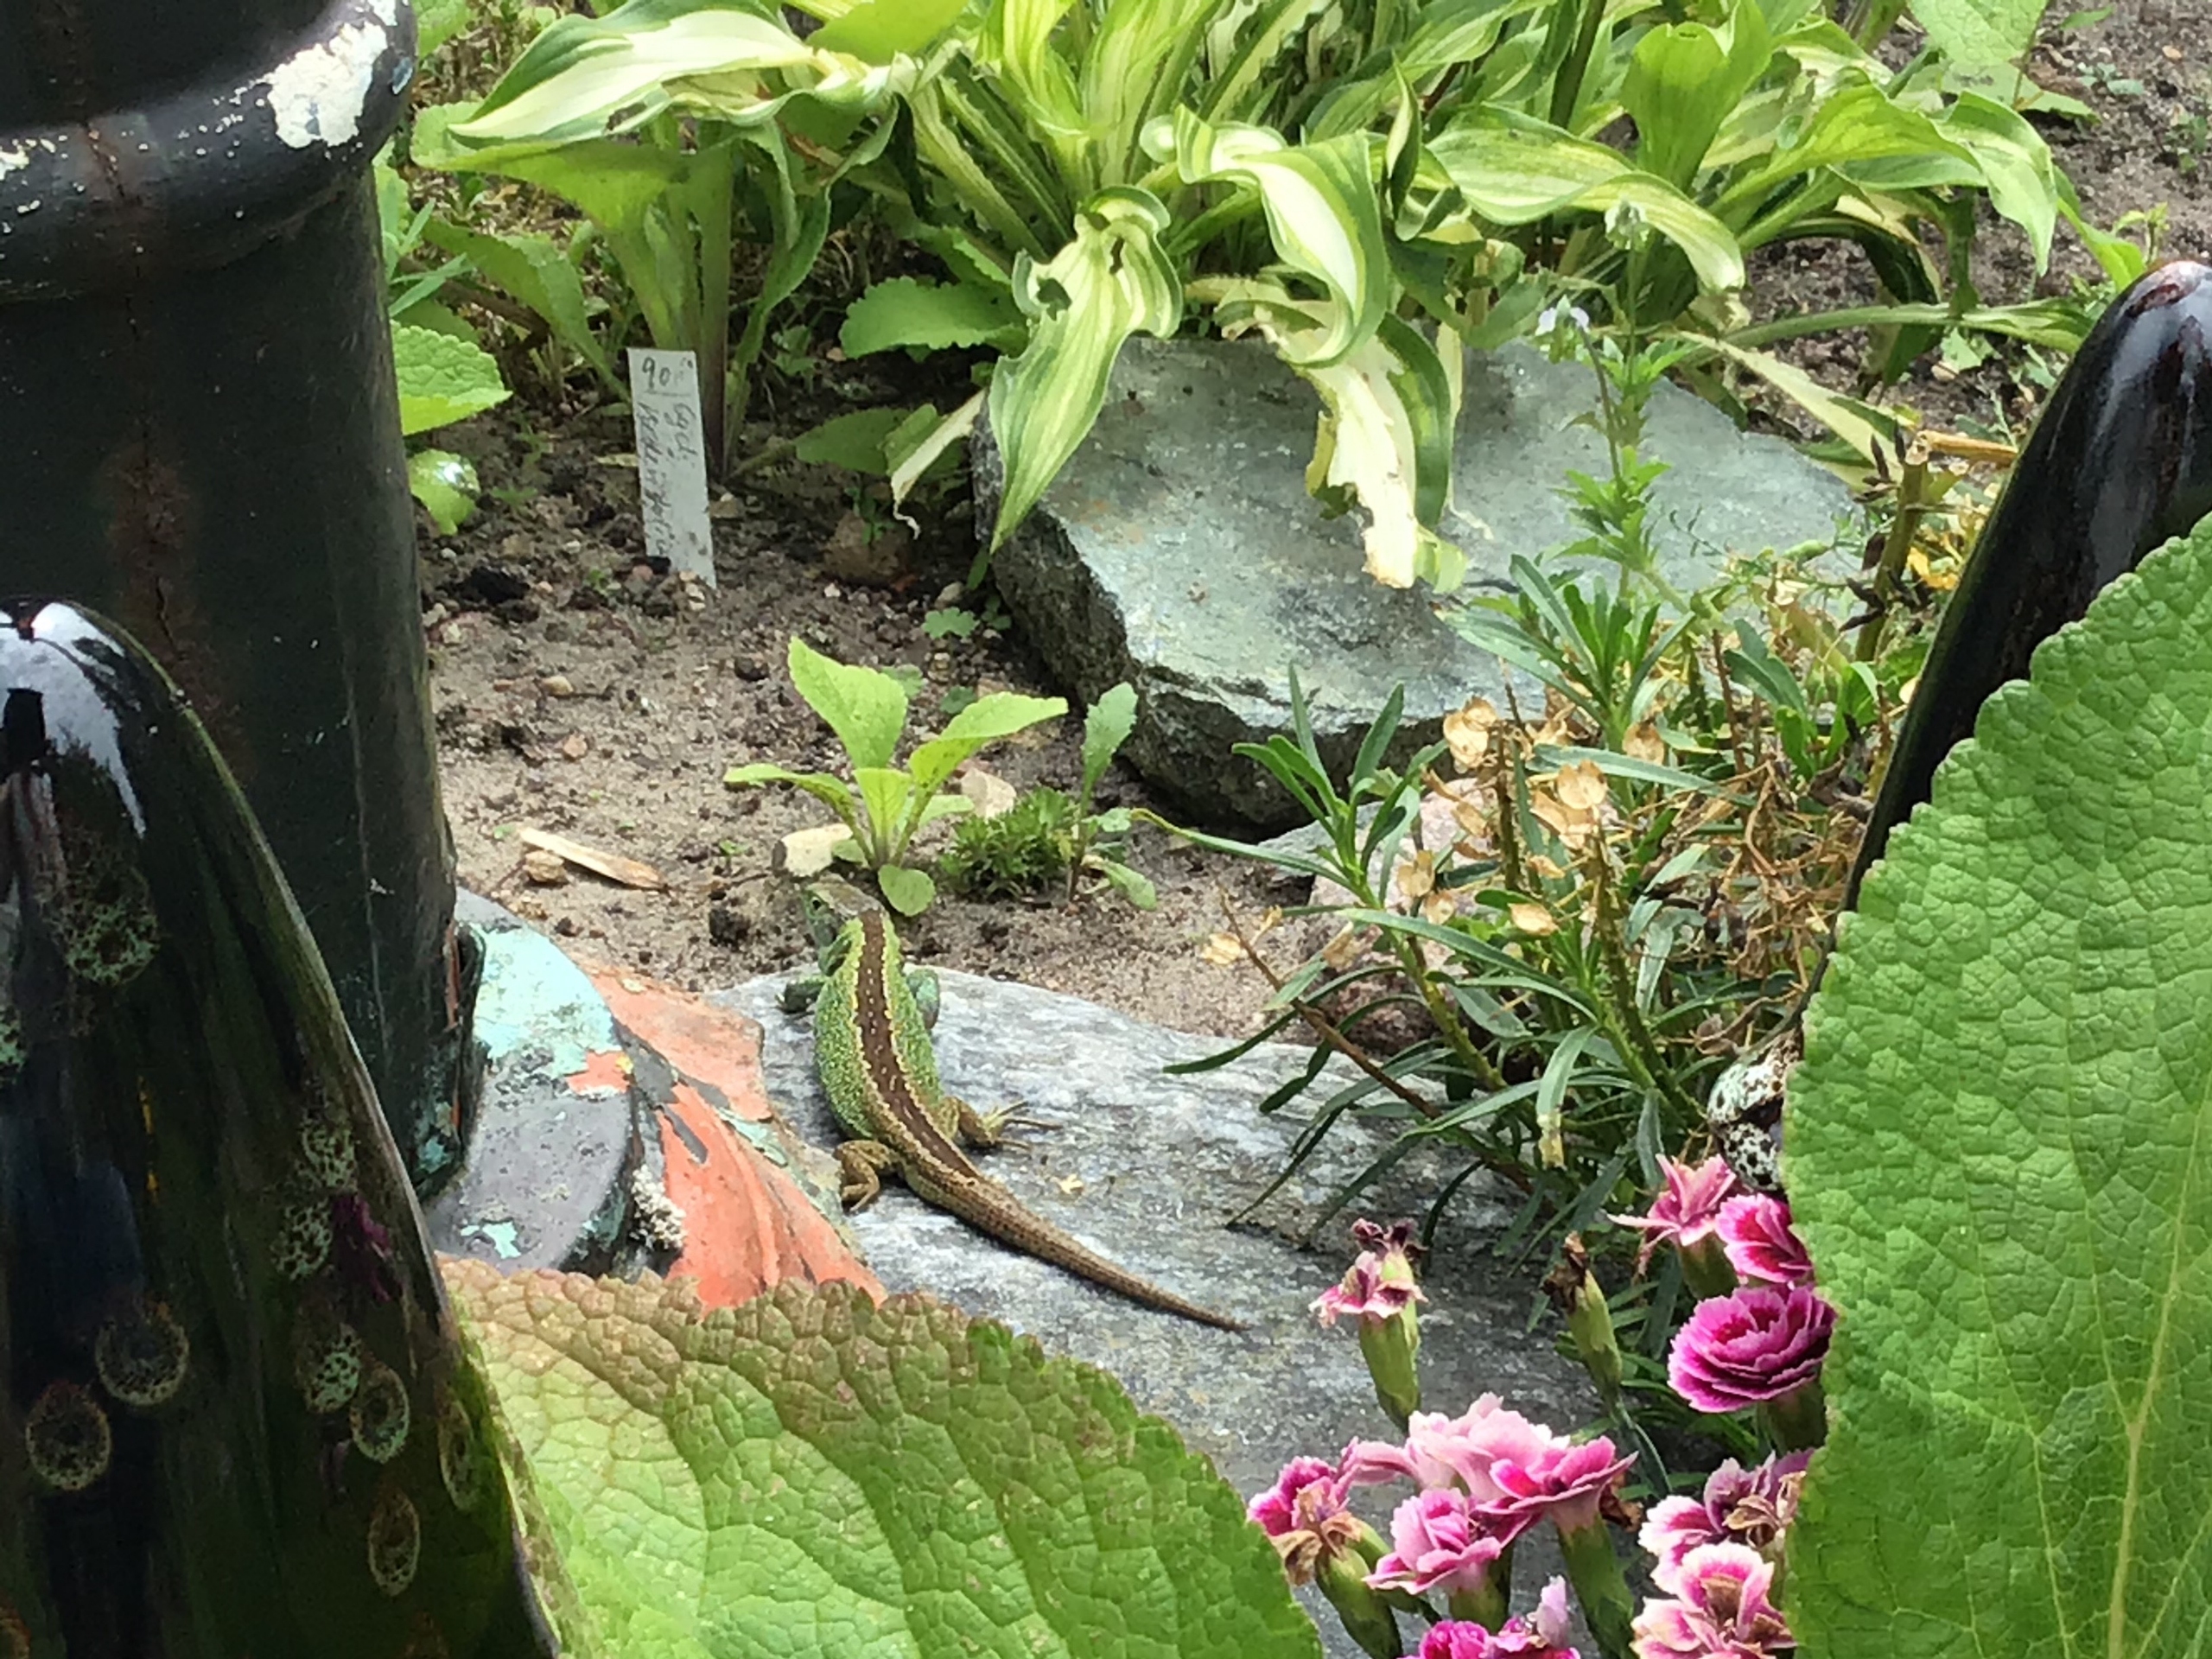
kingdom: Animalia
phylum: Chordata
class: Squamata
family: Lacertidae
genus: Lacerta
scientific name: Lacerta agilis
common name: Markfirben
